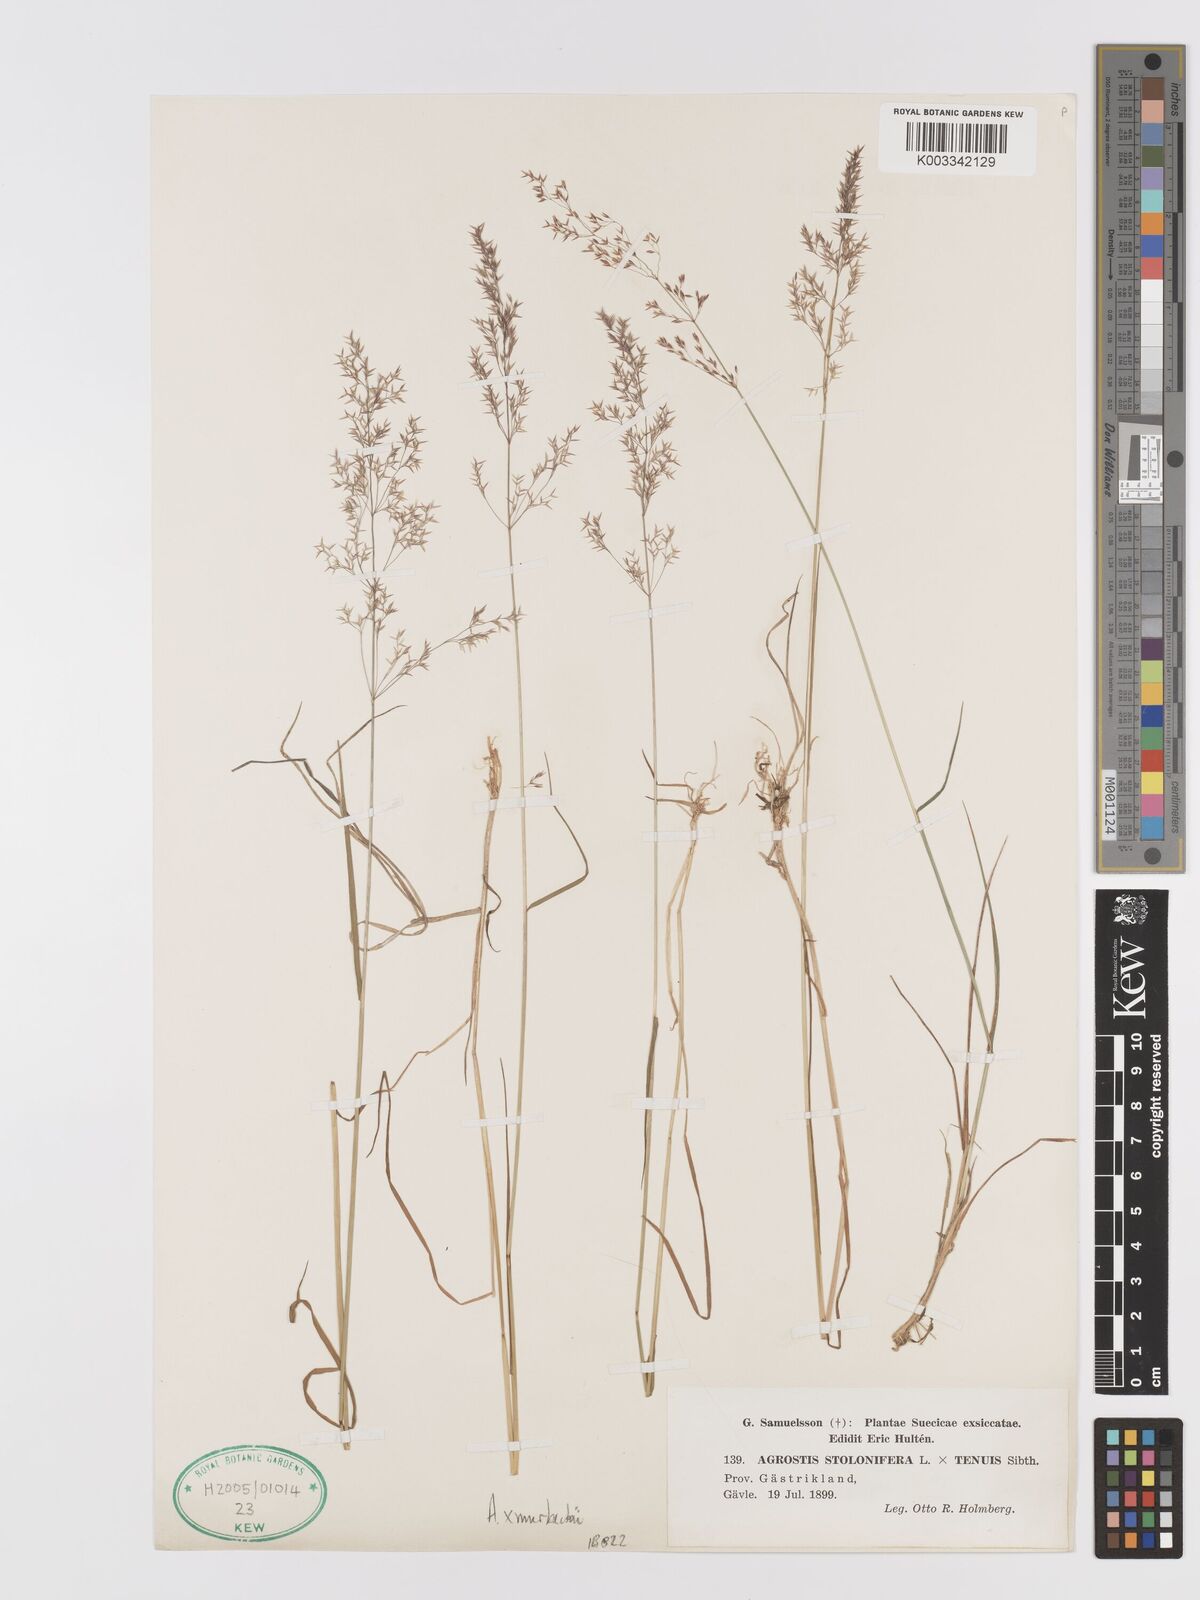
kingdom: Plantae
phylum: Tracheophyta
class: Liliopsida
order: Poales
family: Poaceae
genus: Agrostis
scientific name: Agrostis stolonifera
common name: Creeping bentgrass
